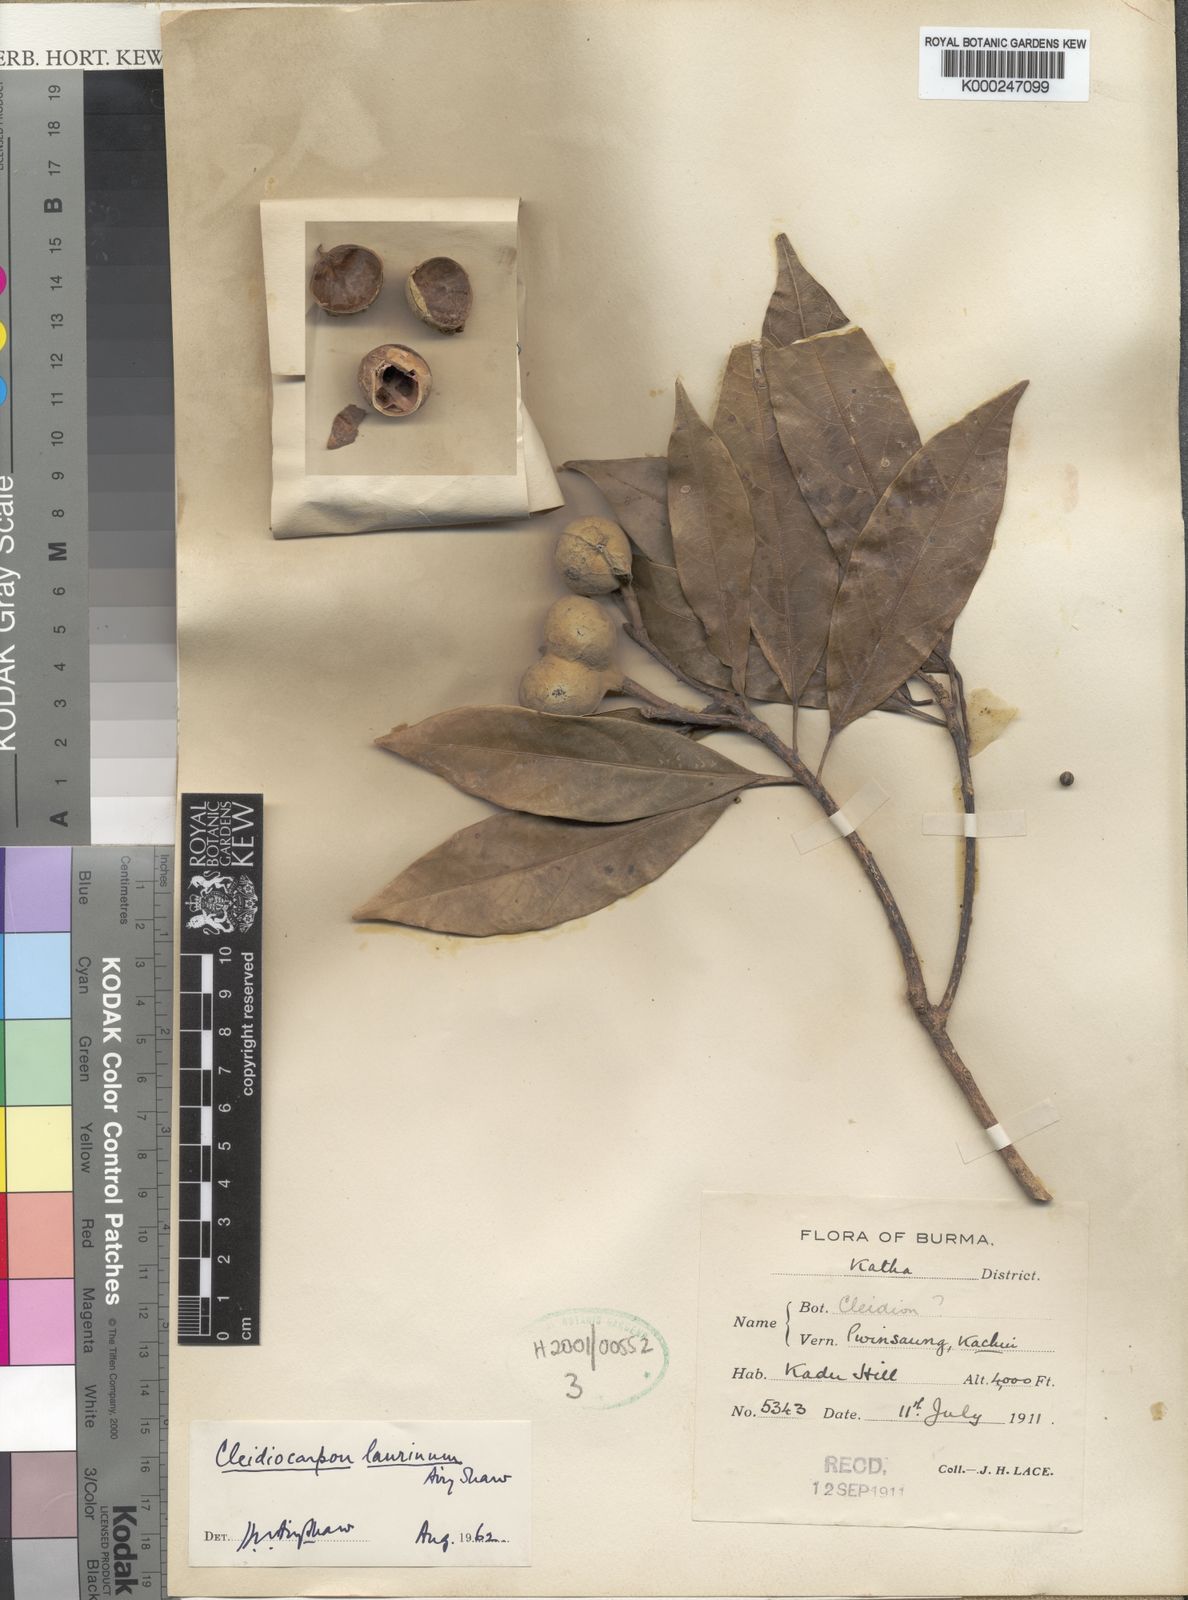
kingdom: Plantae
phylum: Tracheophyta
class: Magnoliopsida
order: Malpighiales
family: Euphorbiaceae
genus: Cleidiocarpon
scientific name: Cleidiocarpon laurinum
